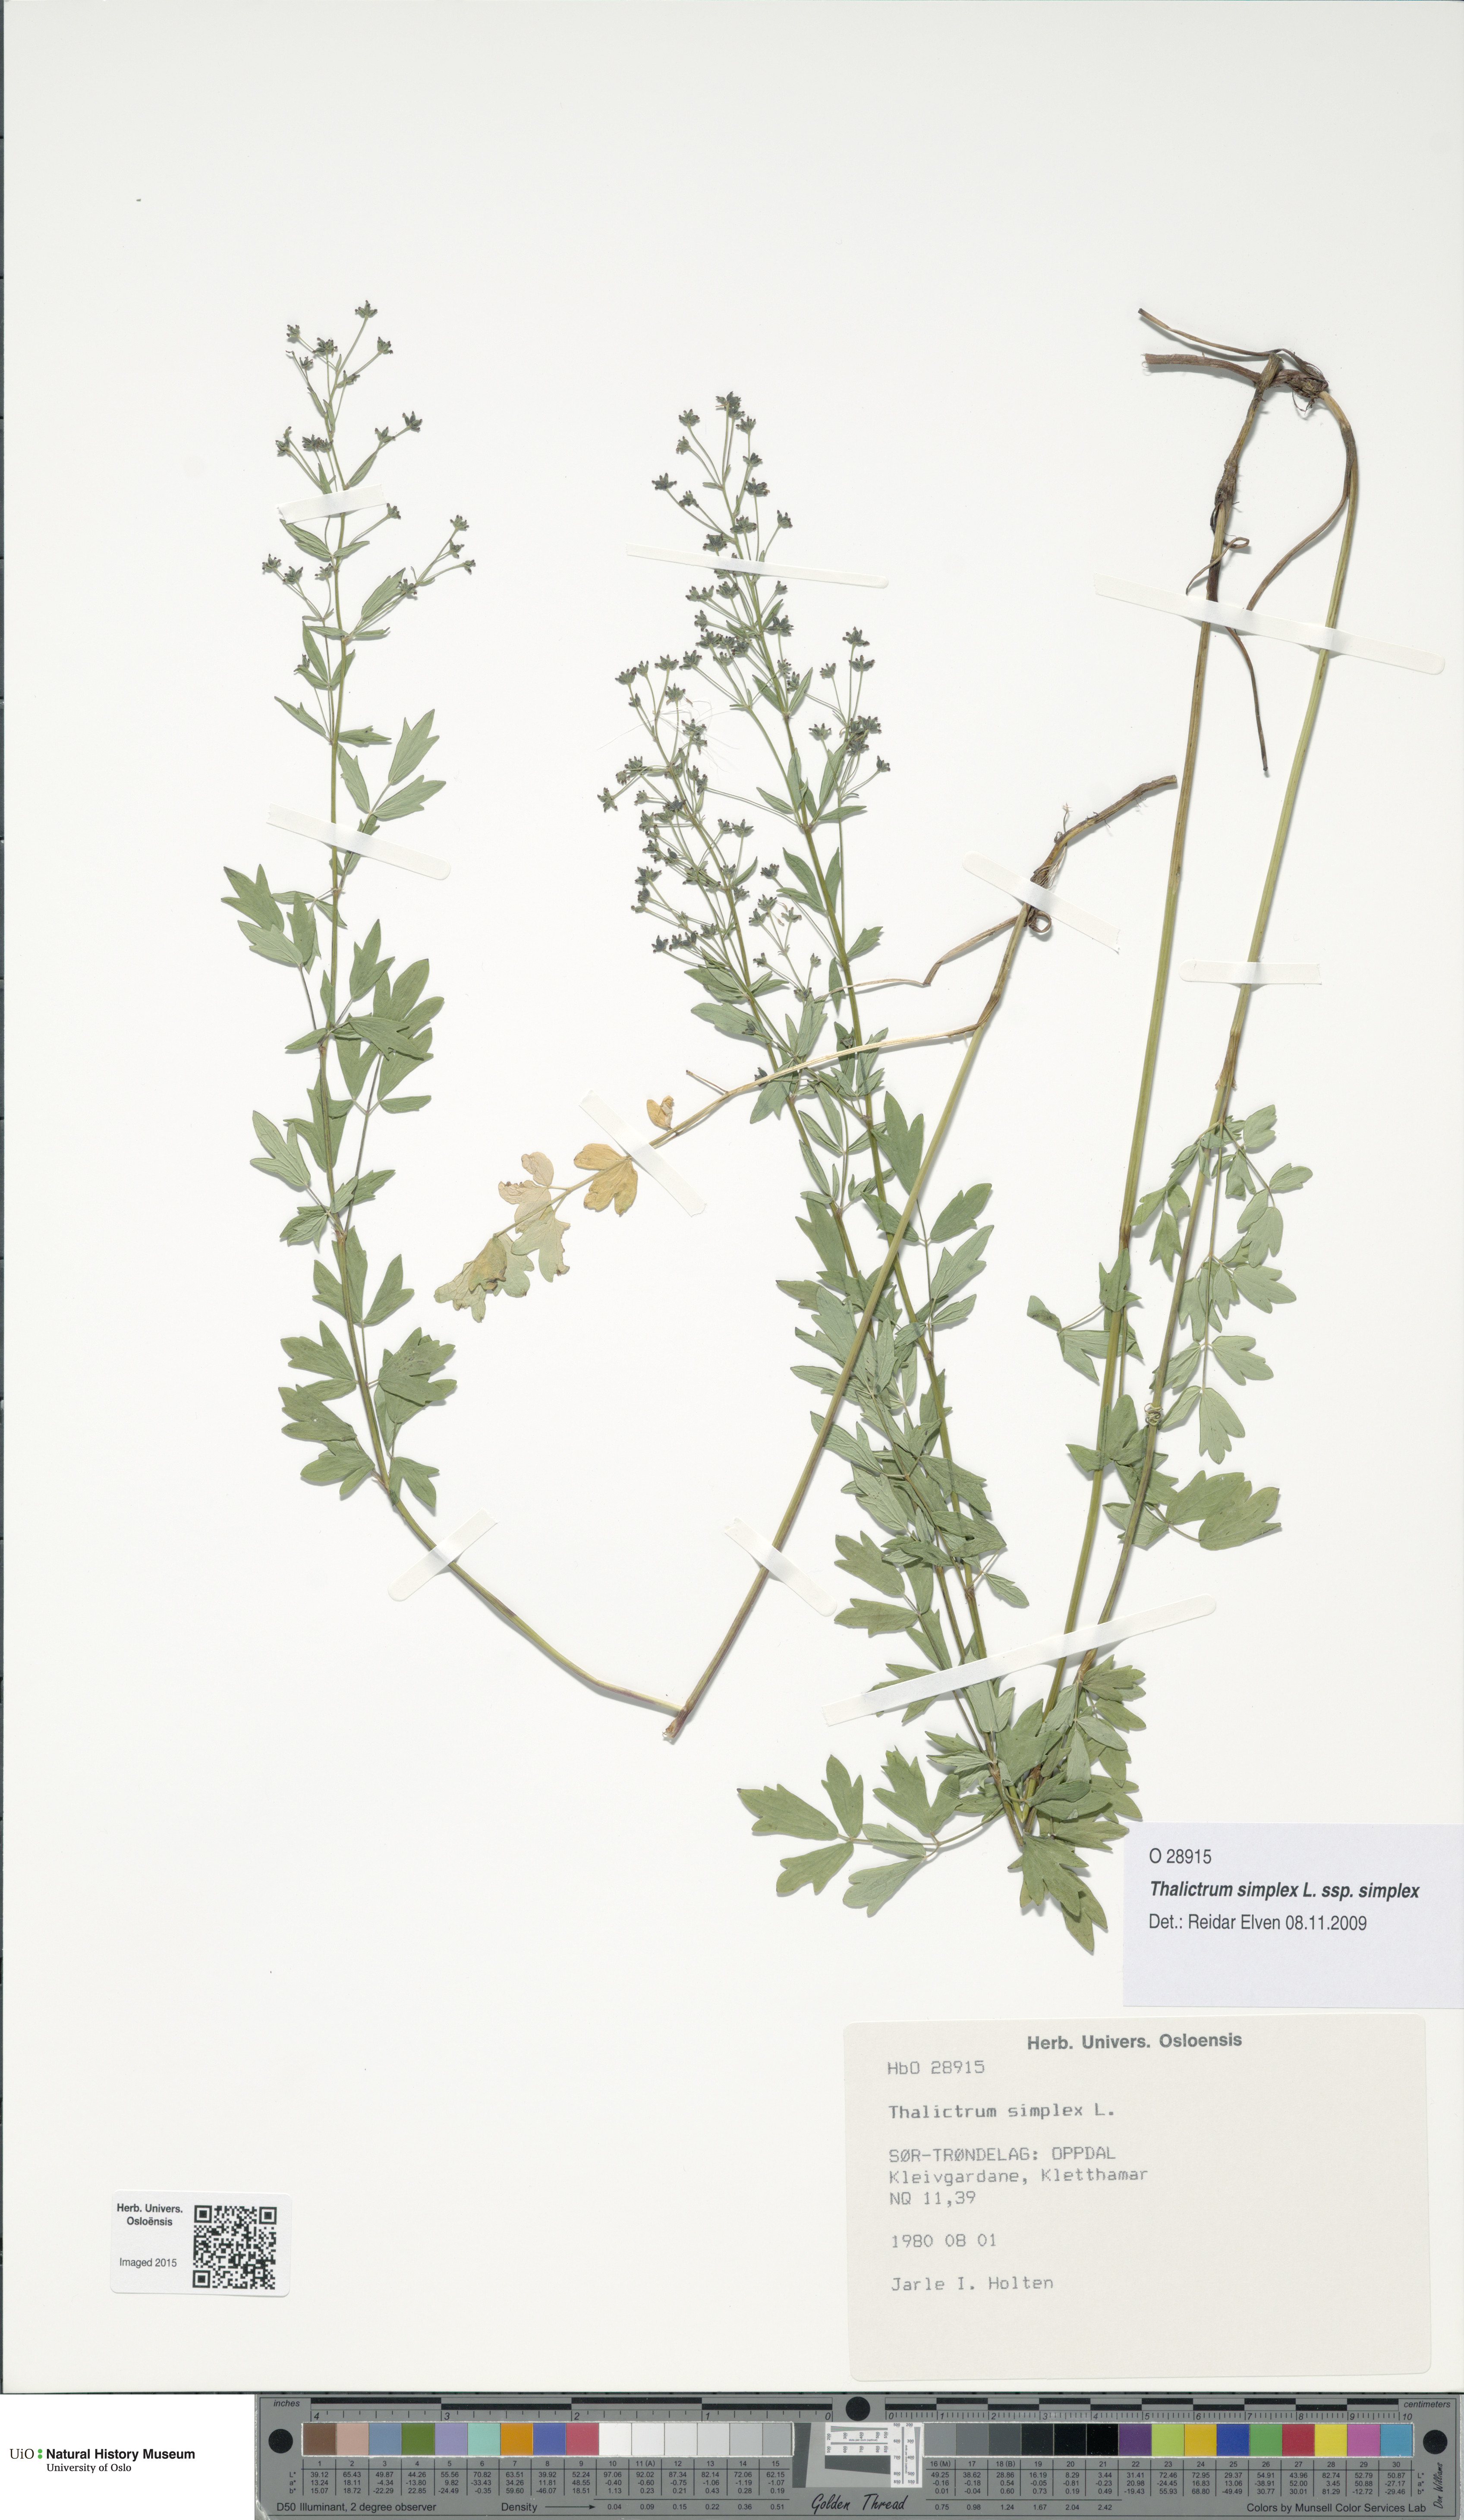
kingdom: Plantae
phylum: Tracheophyta
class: Magnoliopsida
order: Ranunculales
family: Ranunculaceae
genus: Thalictrum
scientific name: Thalictrum simplex
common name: Small meadow-rue
